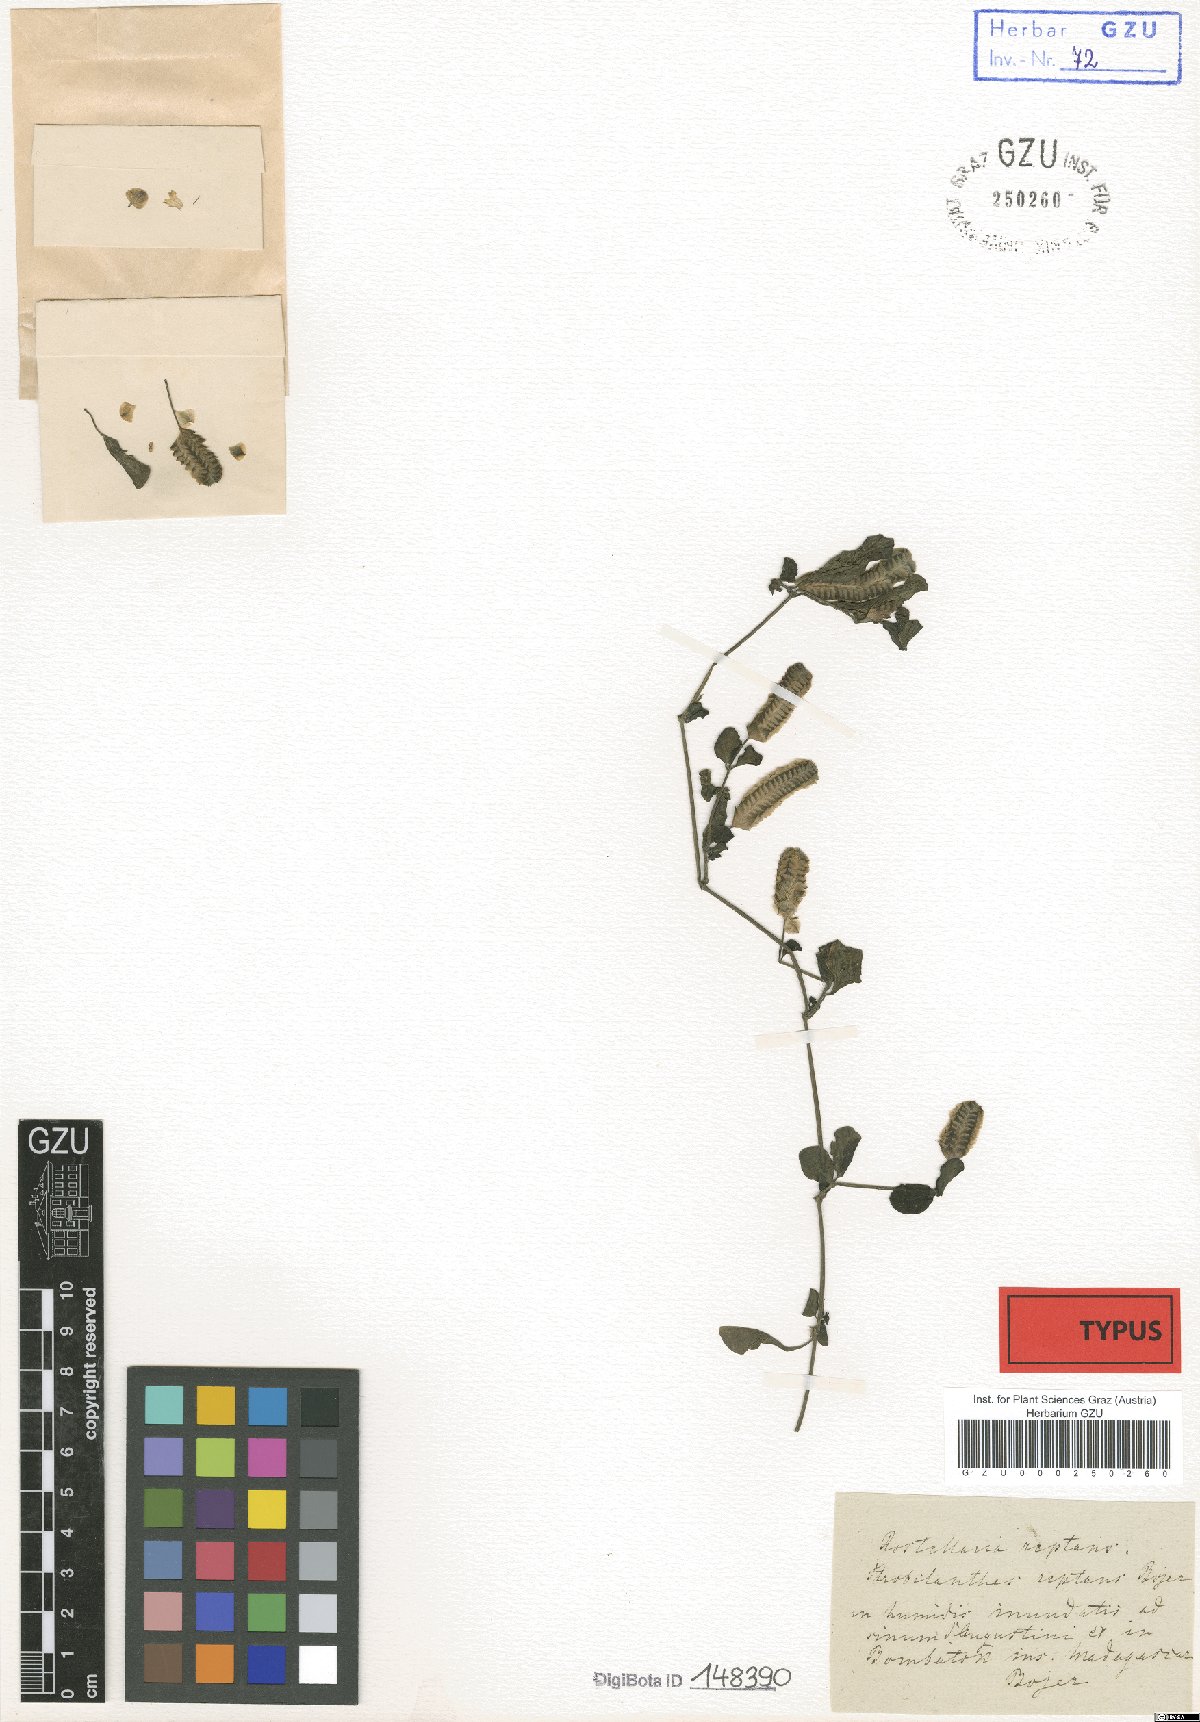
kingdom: Plantae
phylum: Tracheophyta
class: Magnoliopsida
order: Lamiales
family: Acanthaceae
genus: Anisostachya
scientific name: Anisostachya reptans
